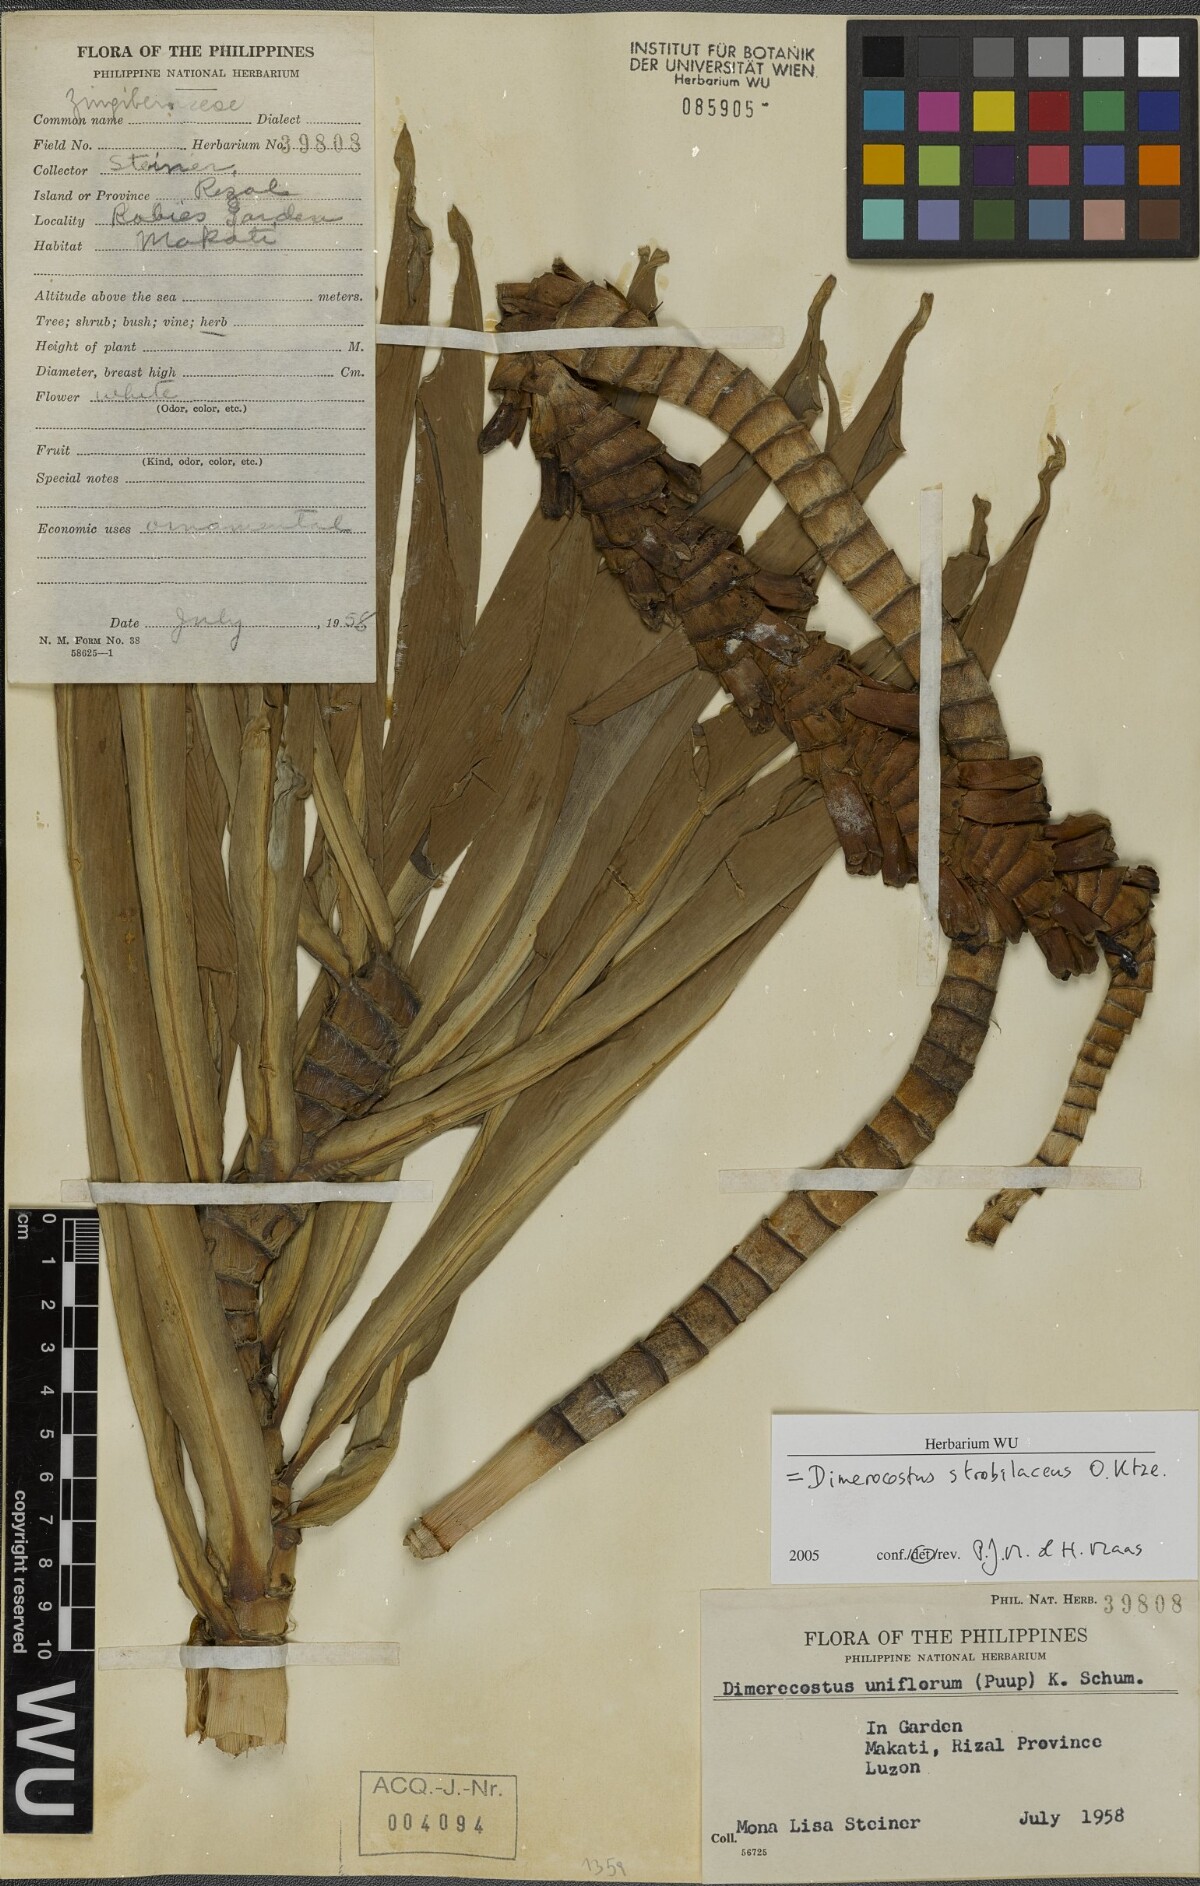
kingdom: Plantae
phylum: Tracheophyta
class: Liliopsida
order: Zingiberales
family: Costaceae
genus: Dimerocostus
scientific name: Dimerocostus strobilaceus
